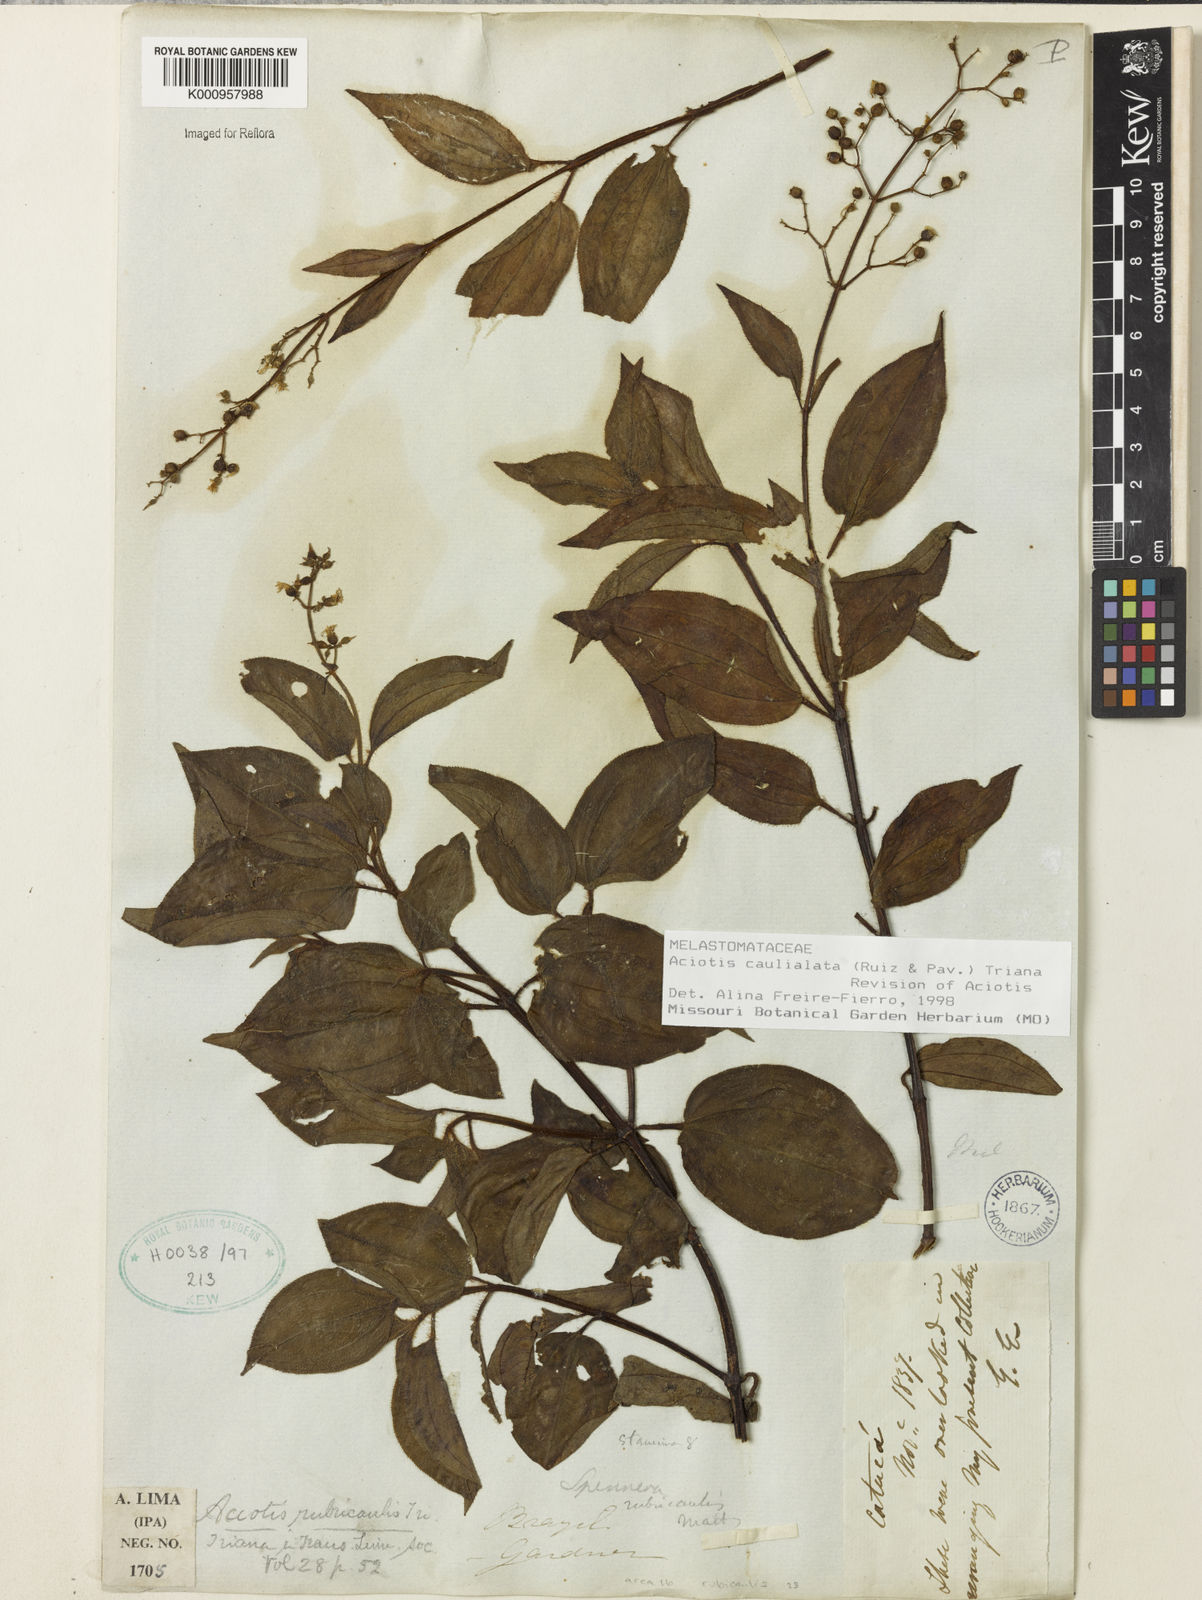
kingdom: Plantae
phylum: Tracheophyta
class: Magnoliopsida
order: Myrtales
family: Melastomataceae
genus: Aciotis
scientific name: Aciotis rubricaulis
